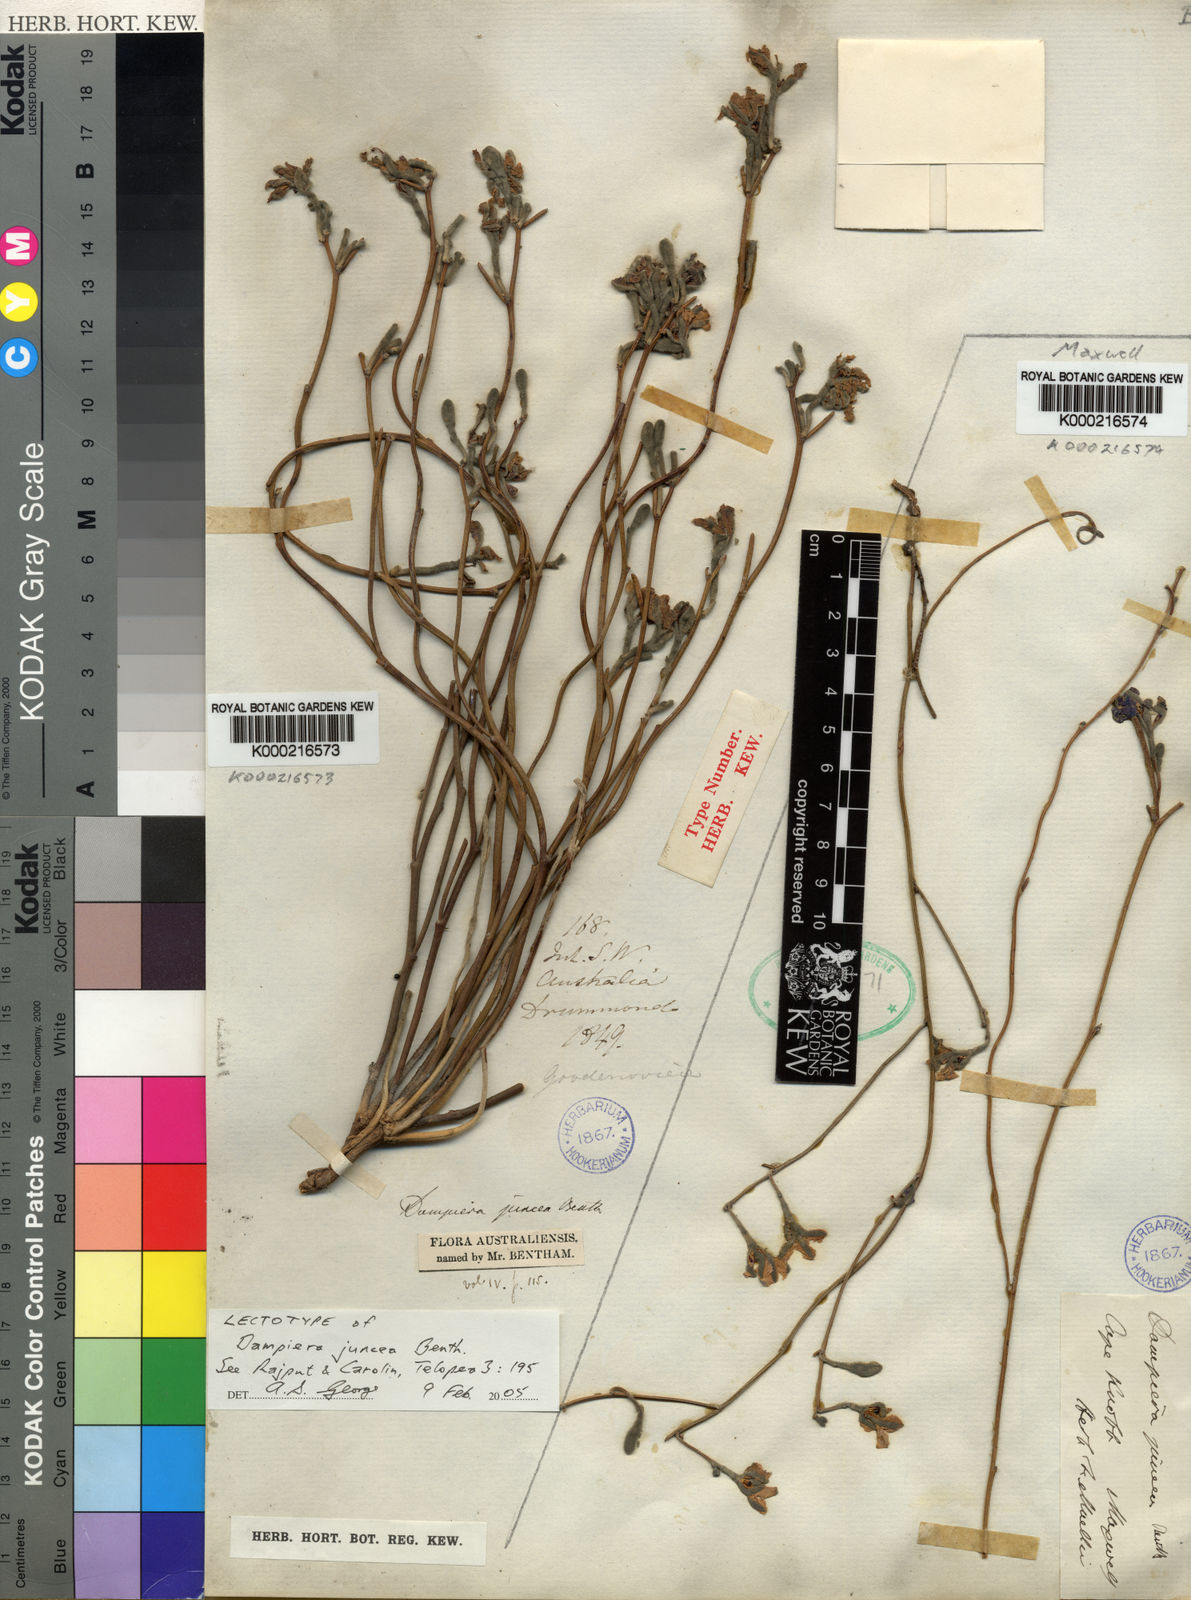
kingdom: Plantae
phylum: Tracheophyta
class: Magnoliopsida
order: Asterales
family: Goodeniaceae
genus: Dampiera
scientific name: Dampiera juncea
